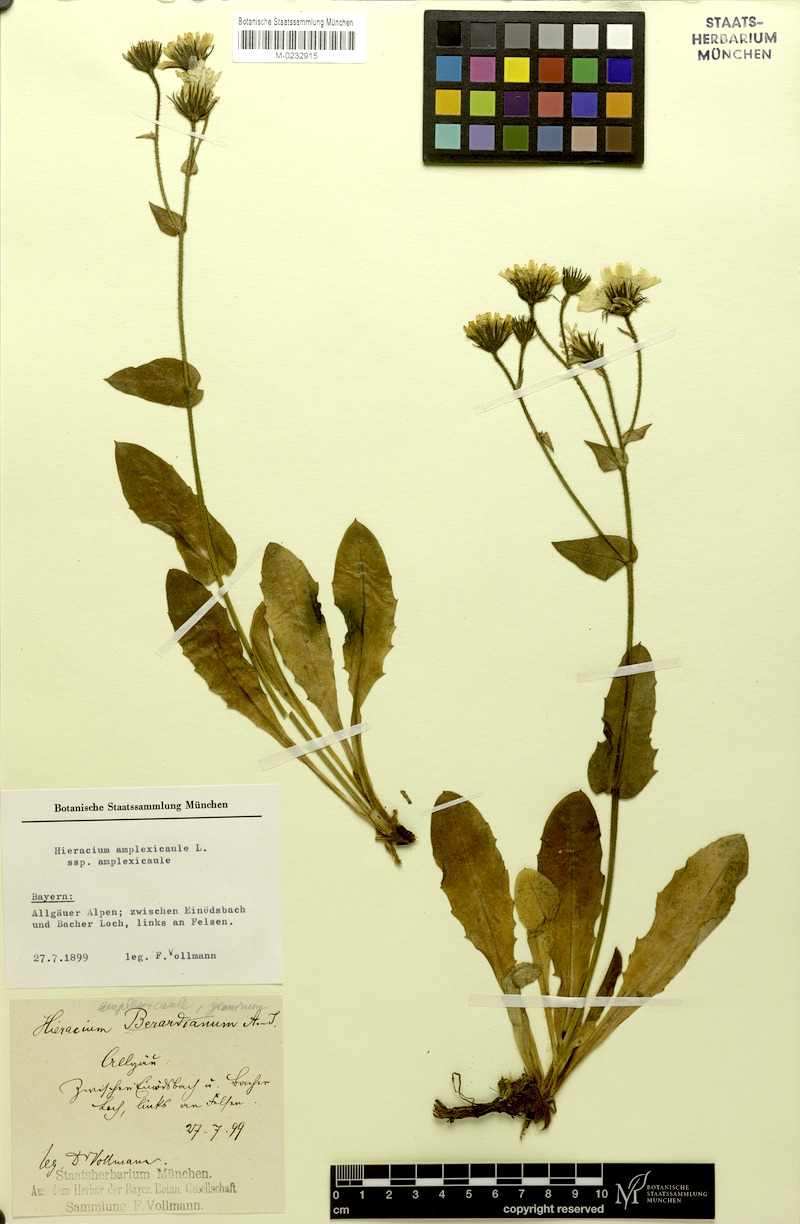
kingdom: Plantae
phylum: Tracheophyta
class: Magnoliopsida
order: Asterales
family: Asteraceae
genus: Hieracium
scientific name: Hieracium amplexicaule
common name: Sticky hawkweed
